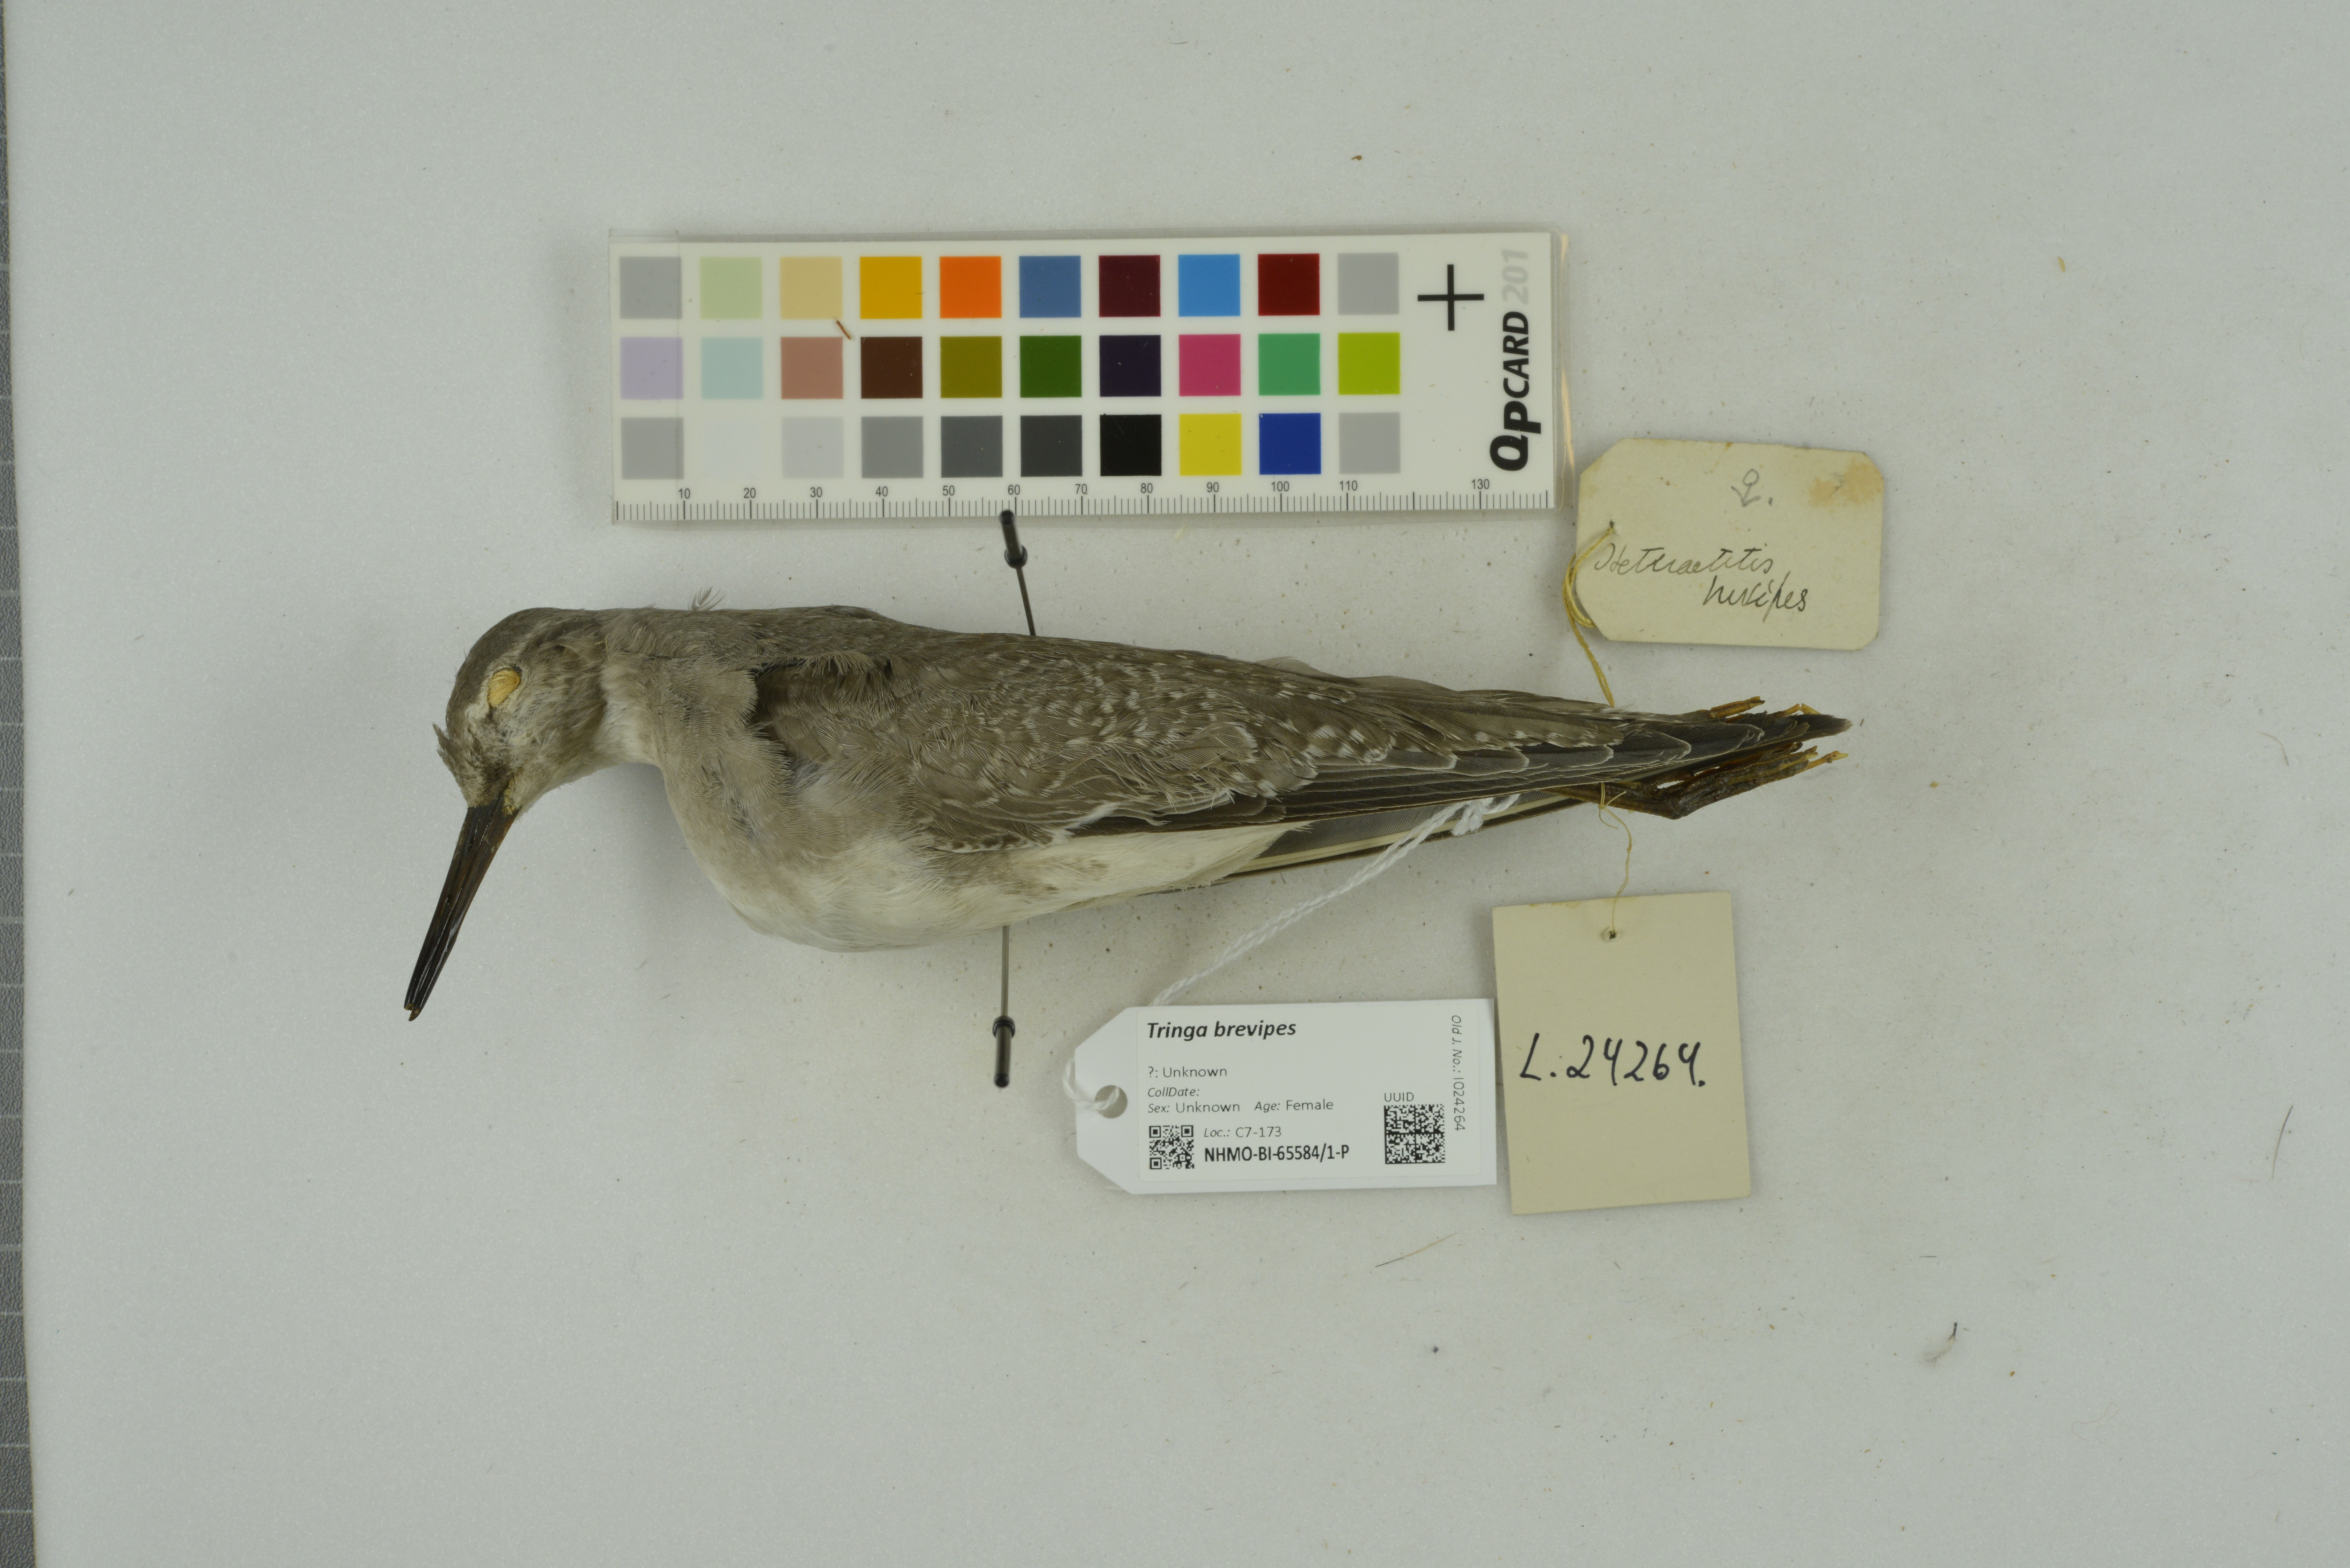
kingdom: Animalia
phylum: Chordata
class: Aves
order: Charadriiformes
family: Scolopacidae
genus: Tringa
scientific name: Tringa brevipes
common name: Grey-tailed tattler
